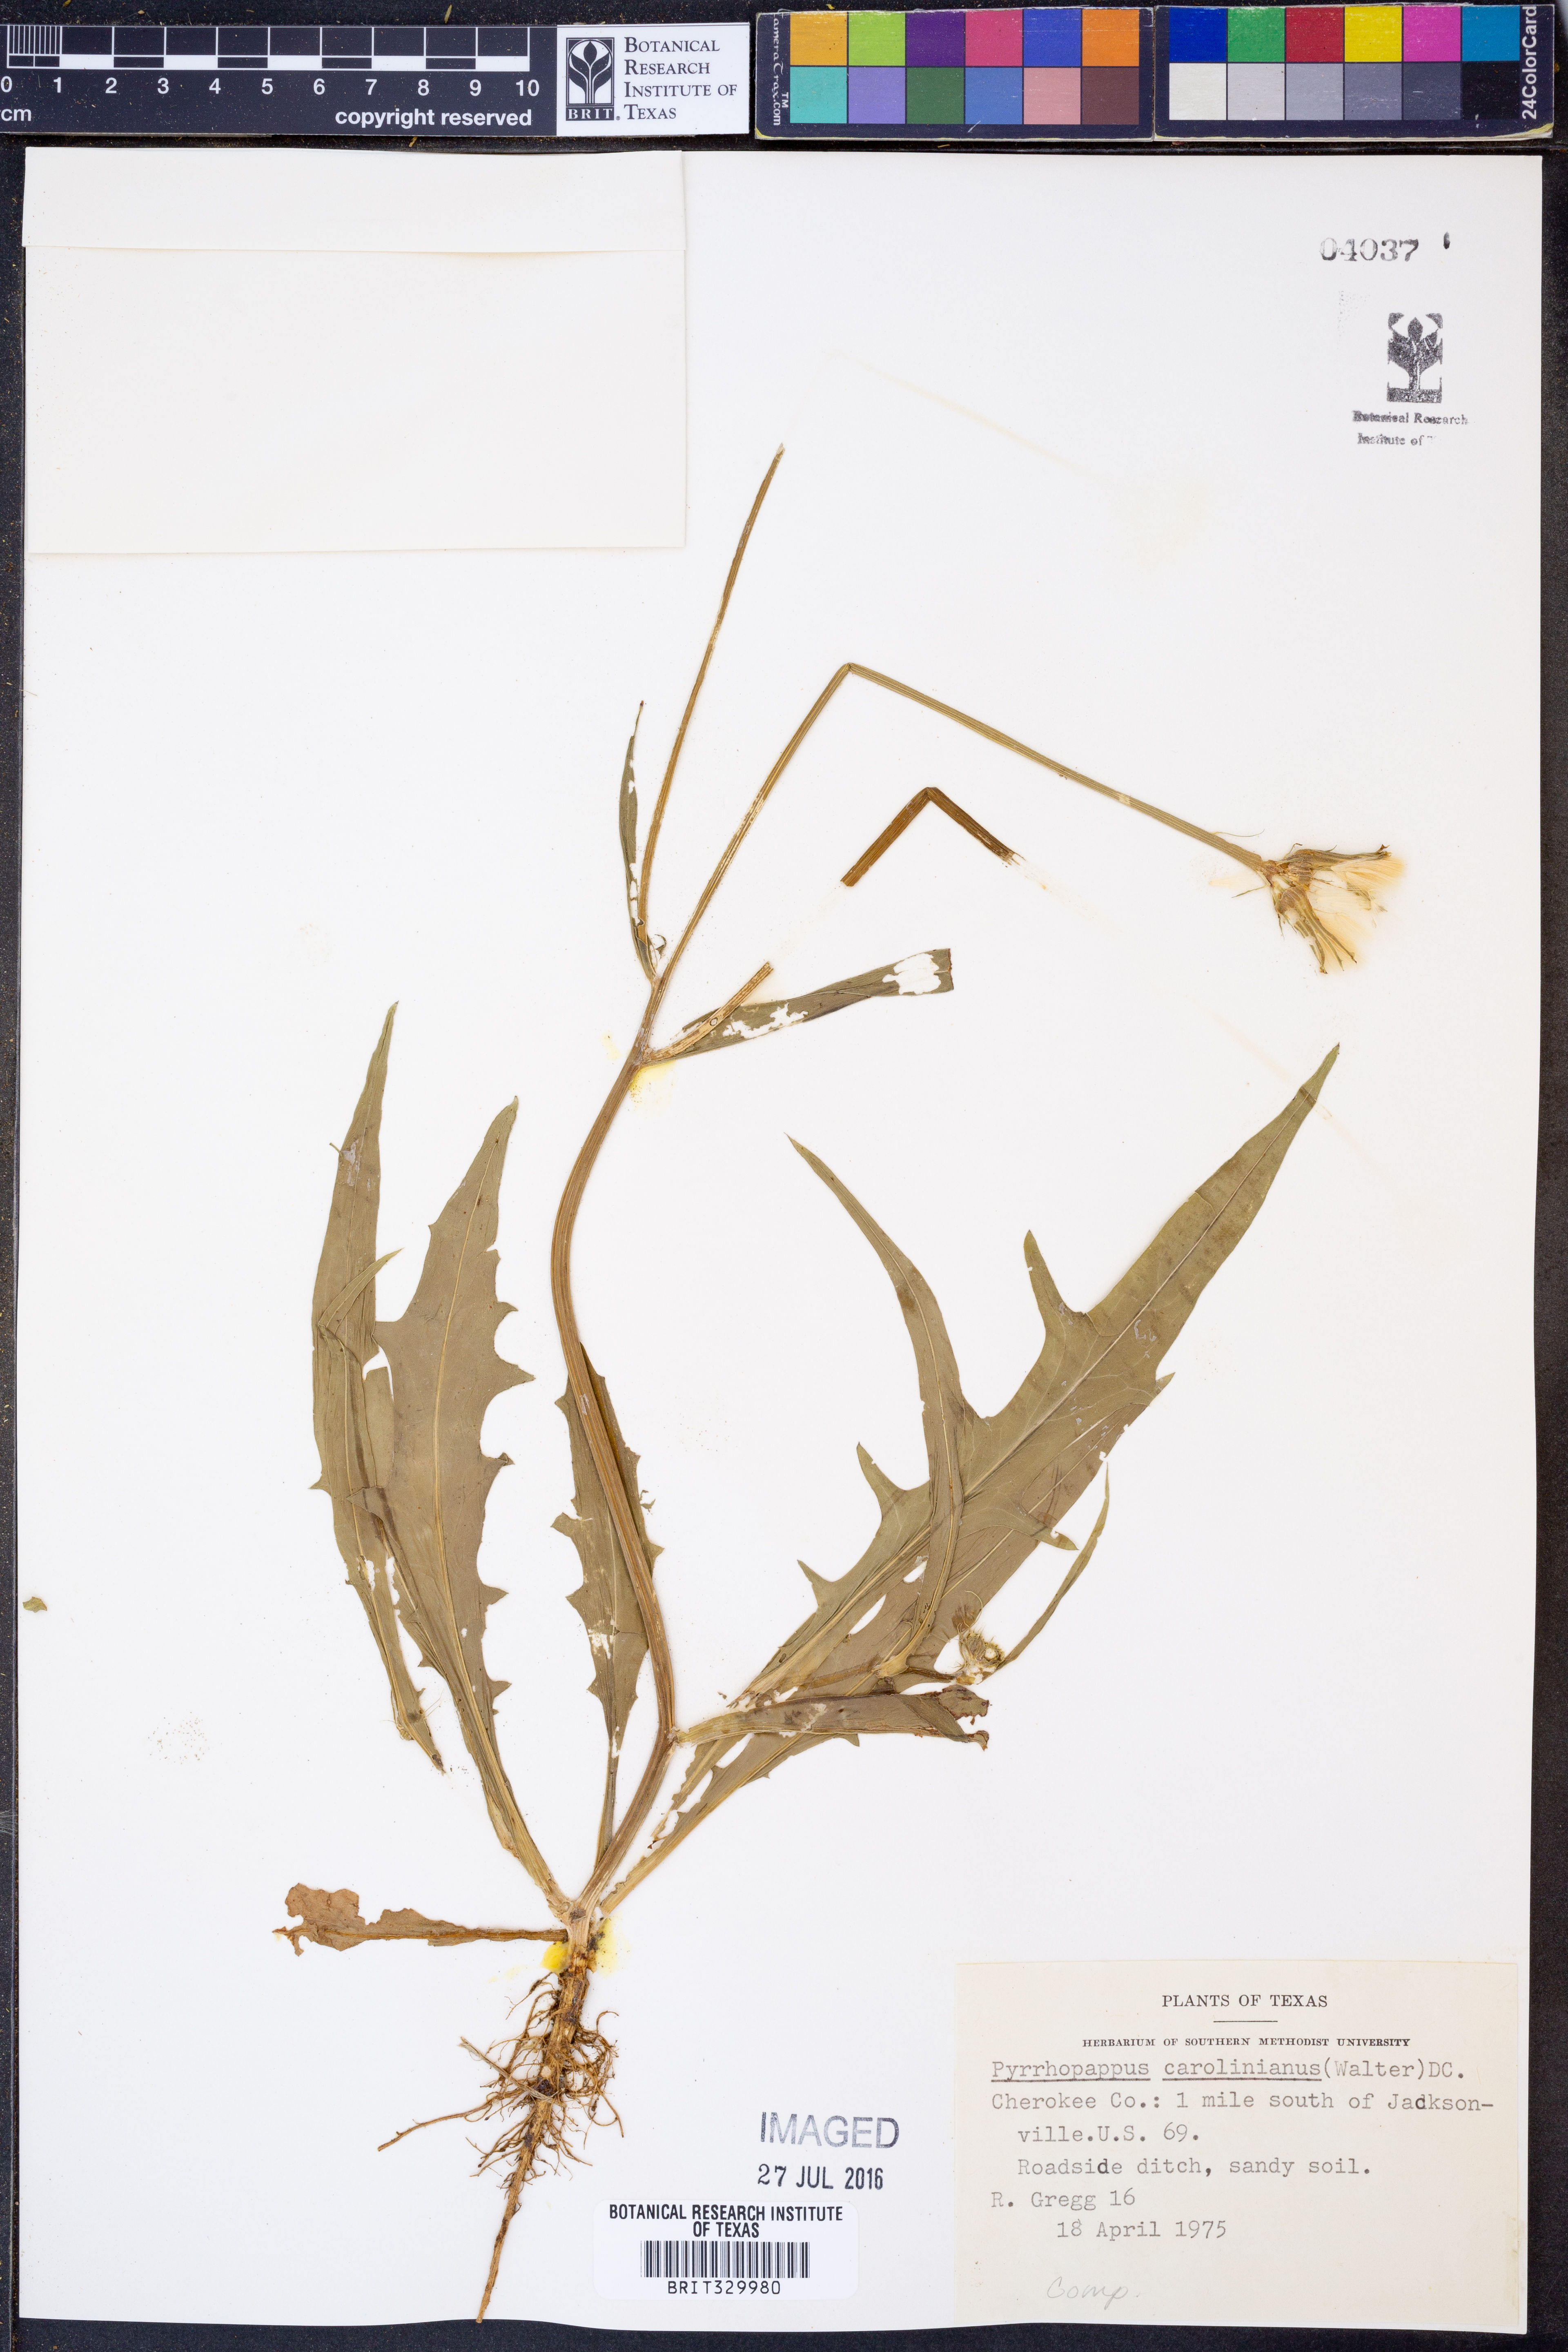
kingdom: Plantae
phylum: Tracheophyta
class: Magnoliopsida
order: Asterales
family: Asteraceae
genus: Pyrrhopappus
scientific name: Pyrrhopappus carolinianus
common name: Carolina desert-chicory
